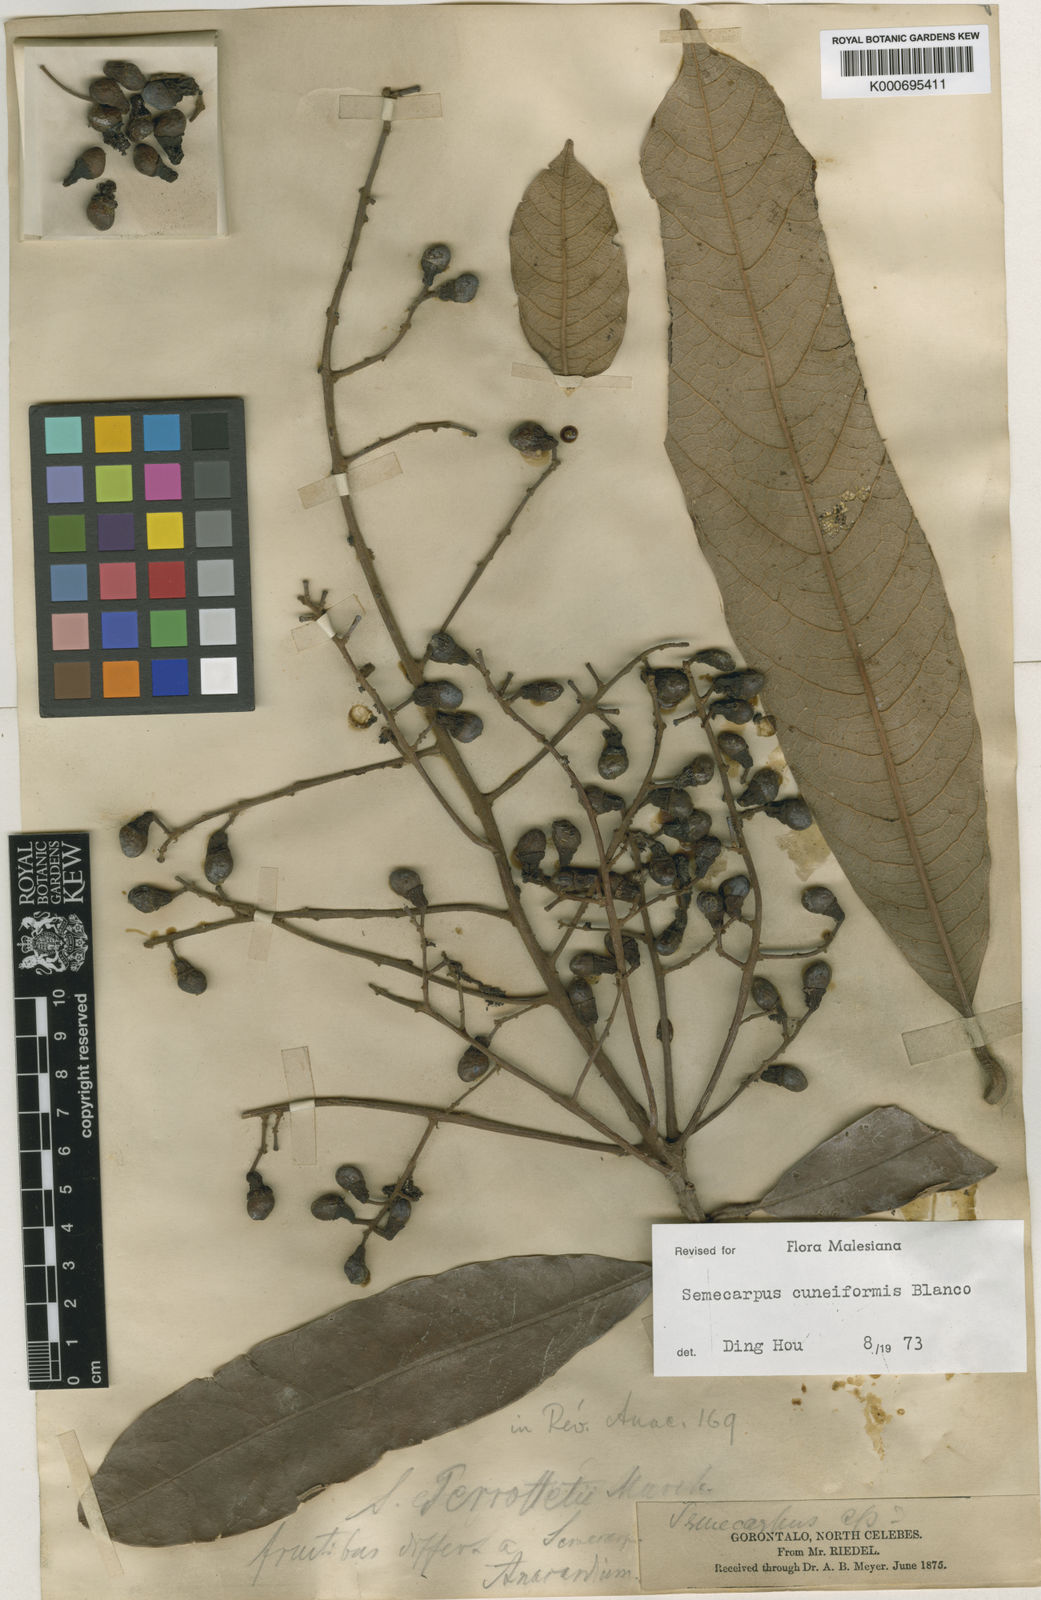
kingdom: Plantae
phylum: Tracheophyta
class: Magnoliopsida
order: Sapindales
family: Anacardiaceae
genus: Semecarpus
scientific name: Semecarpus cuneiformis
